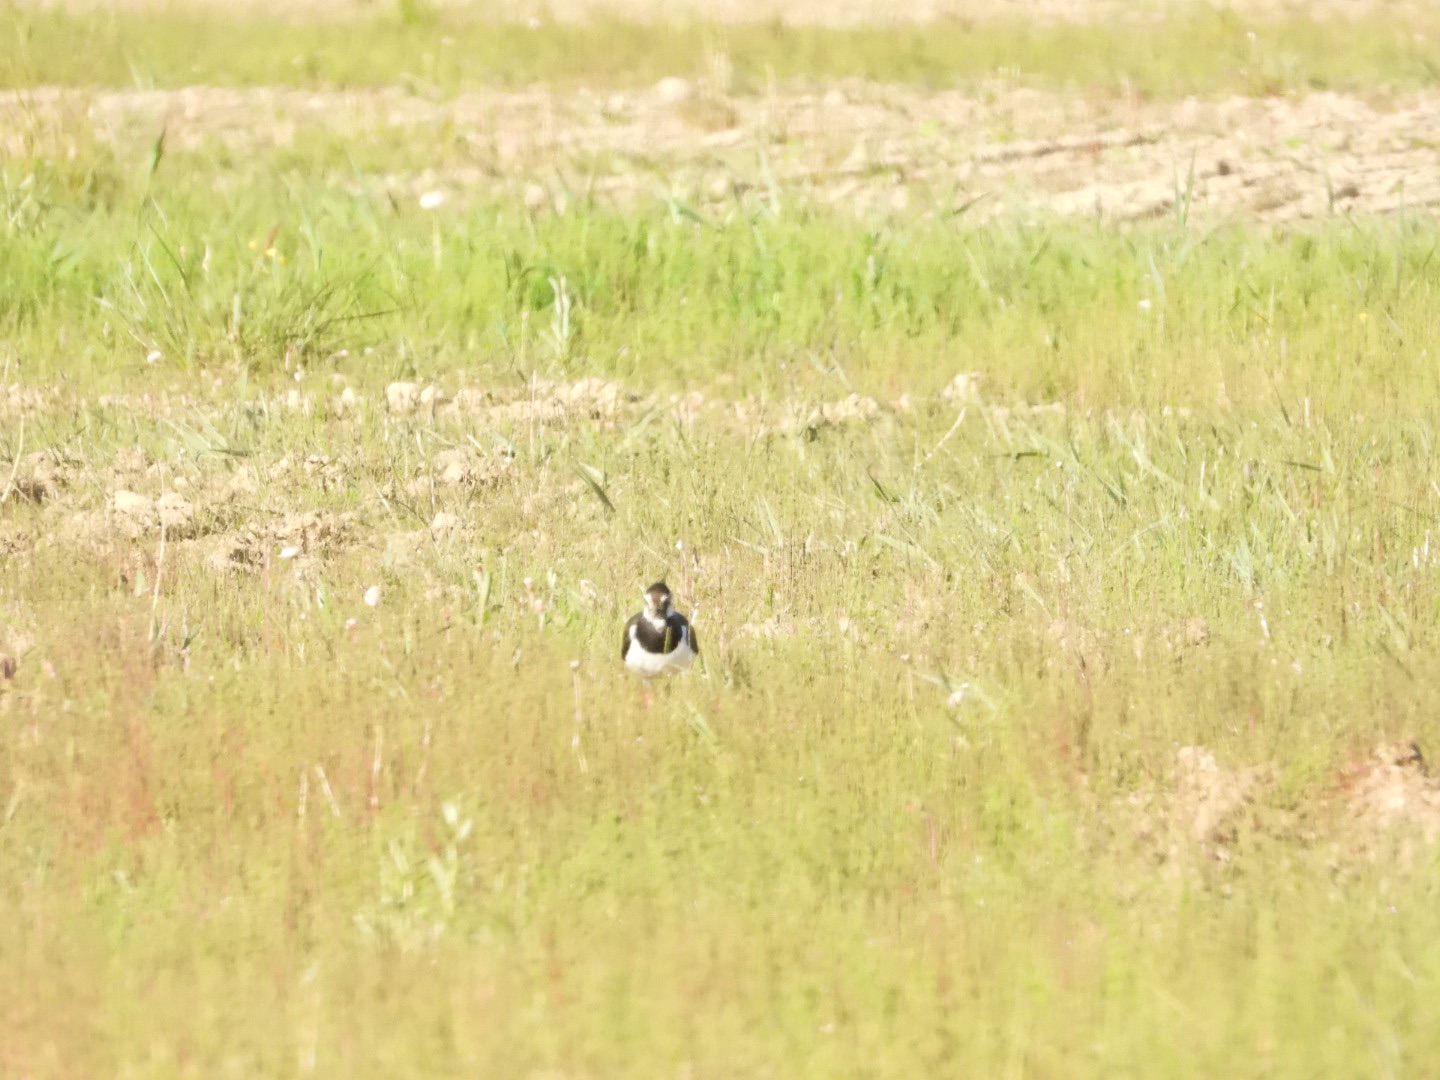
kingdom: Animalia
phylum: Chordata
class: Aves
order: Charadriiformes
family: Charadriidae
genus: Vanellus
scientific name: Vanellus vanellus
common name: Vibe
